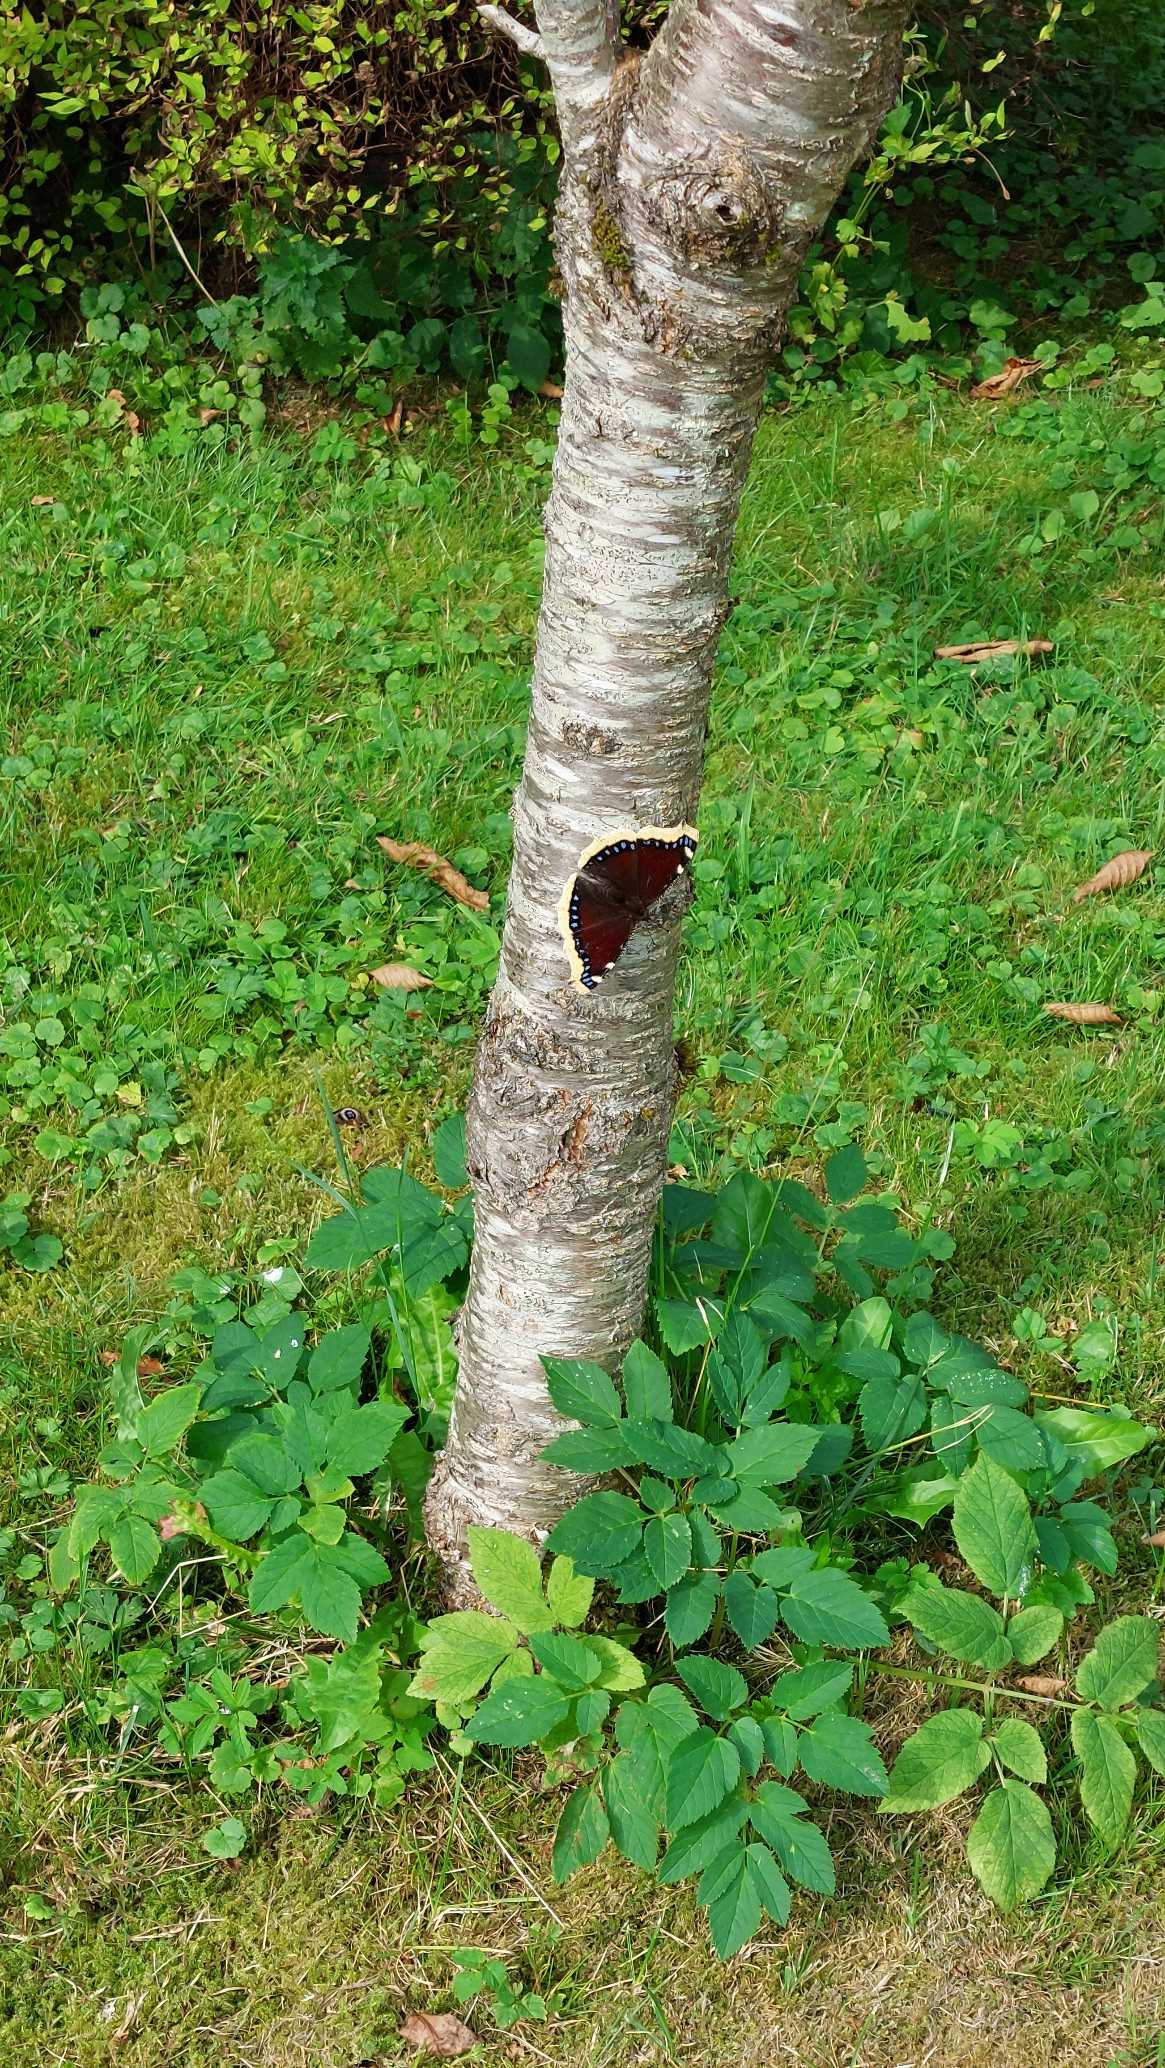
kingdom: Animalia
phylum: Arthropoda
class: Insecta
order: Lepidoptera
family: Nymphalidae
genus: Nymphalis
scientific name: Nymphalis antiopa
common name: Sørgekåbe
